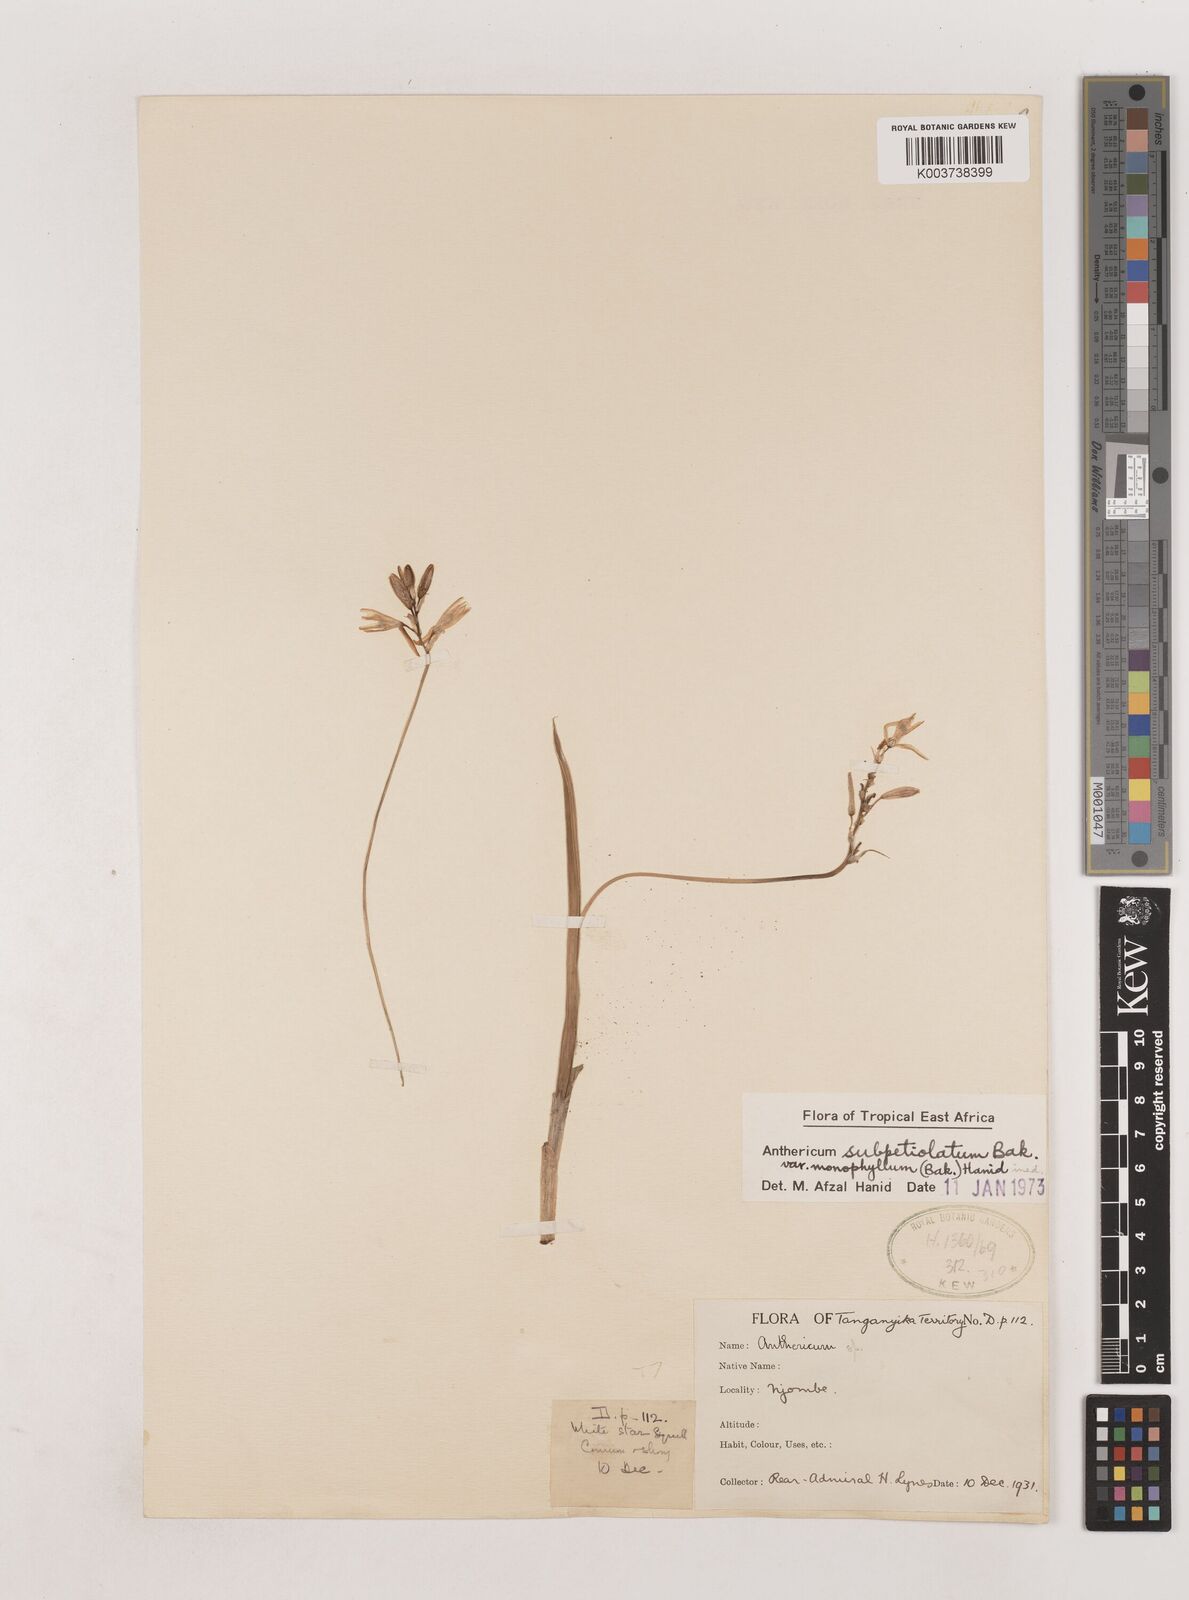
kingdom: Plantae
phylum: Tracheophyta
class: Liliopsida
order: Asparagales
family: Asparagaceae
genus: Chlorophytum
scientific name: Chlorophytum subpetiolatum
